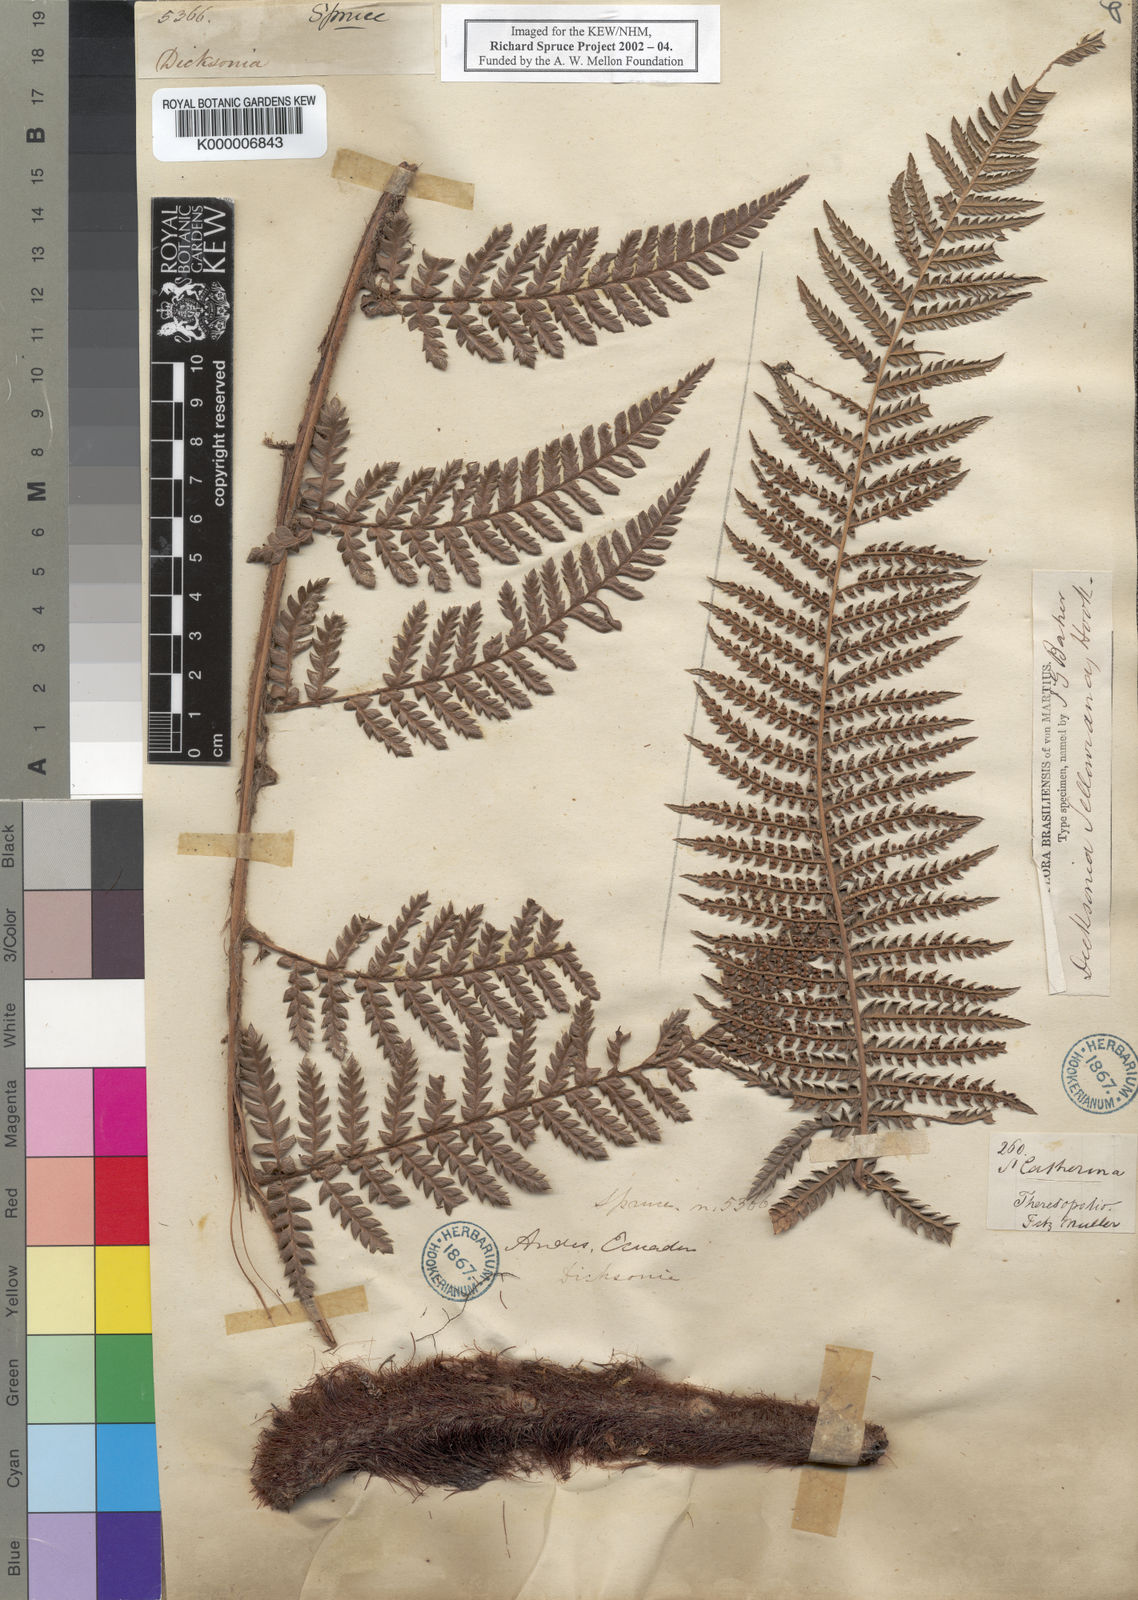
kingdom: Plantae
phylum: Tracheophyta
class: Polypodiopsida
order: Cyatheales
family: Dicksoniaceae
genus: Dicksonia
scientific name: Dicksonia
